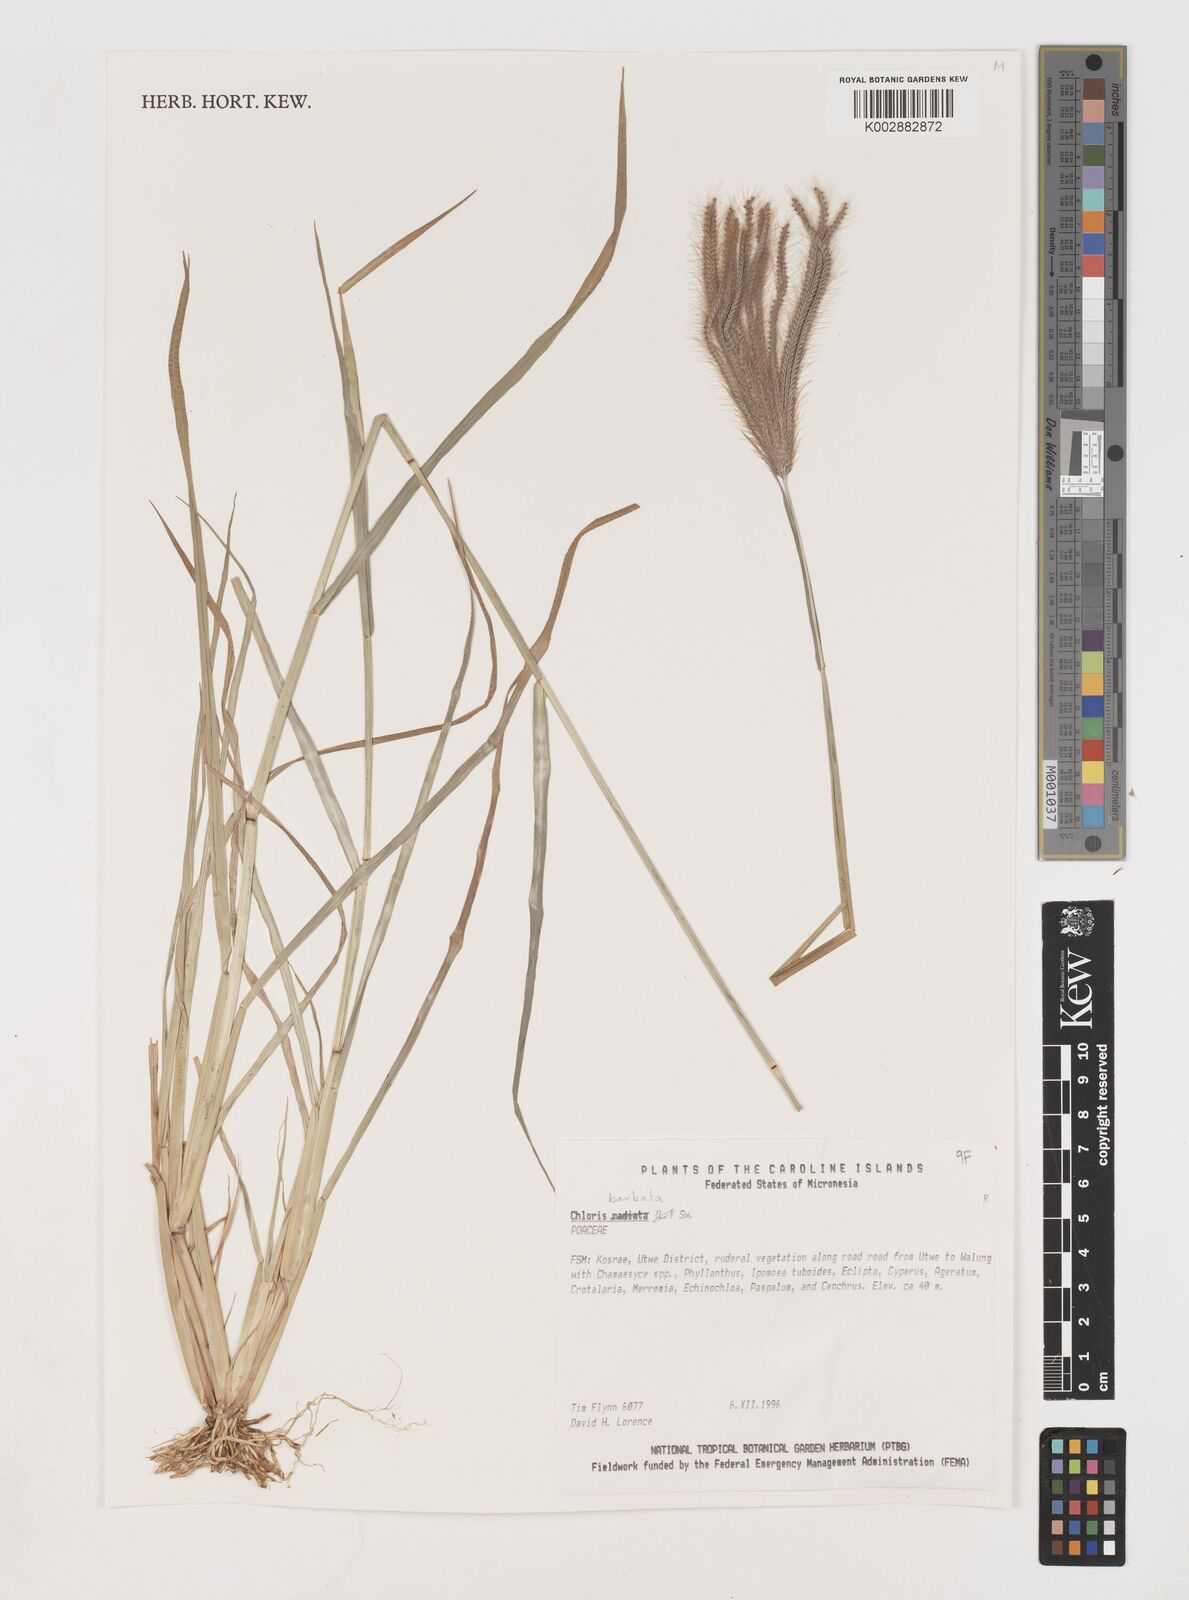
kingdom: Plantae
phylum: Tracheophyta
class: Liliopsida
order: Poales
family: Poaceae
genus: Chloris
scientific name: Chloris barbata
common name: Swollen fingergrass
